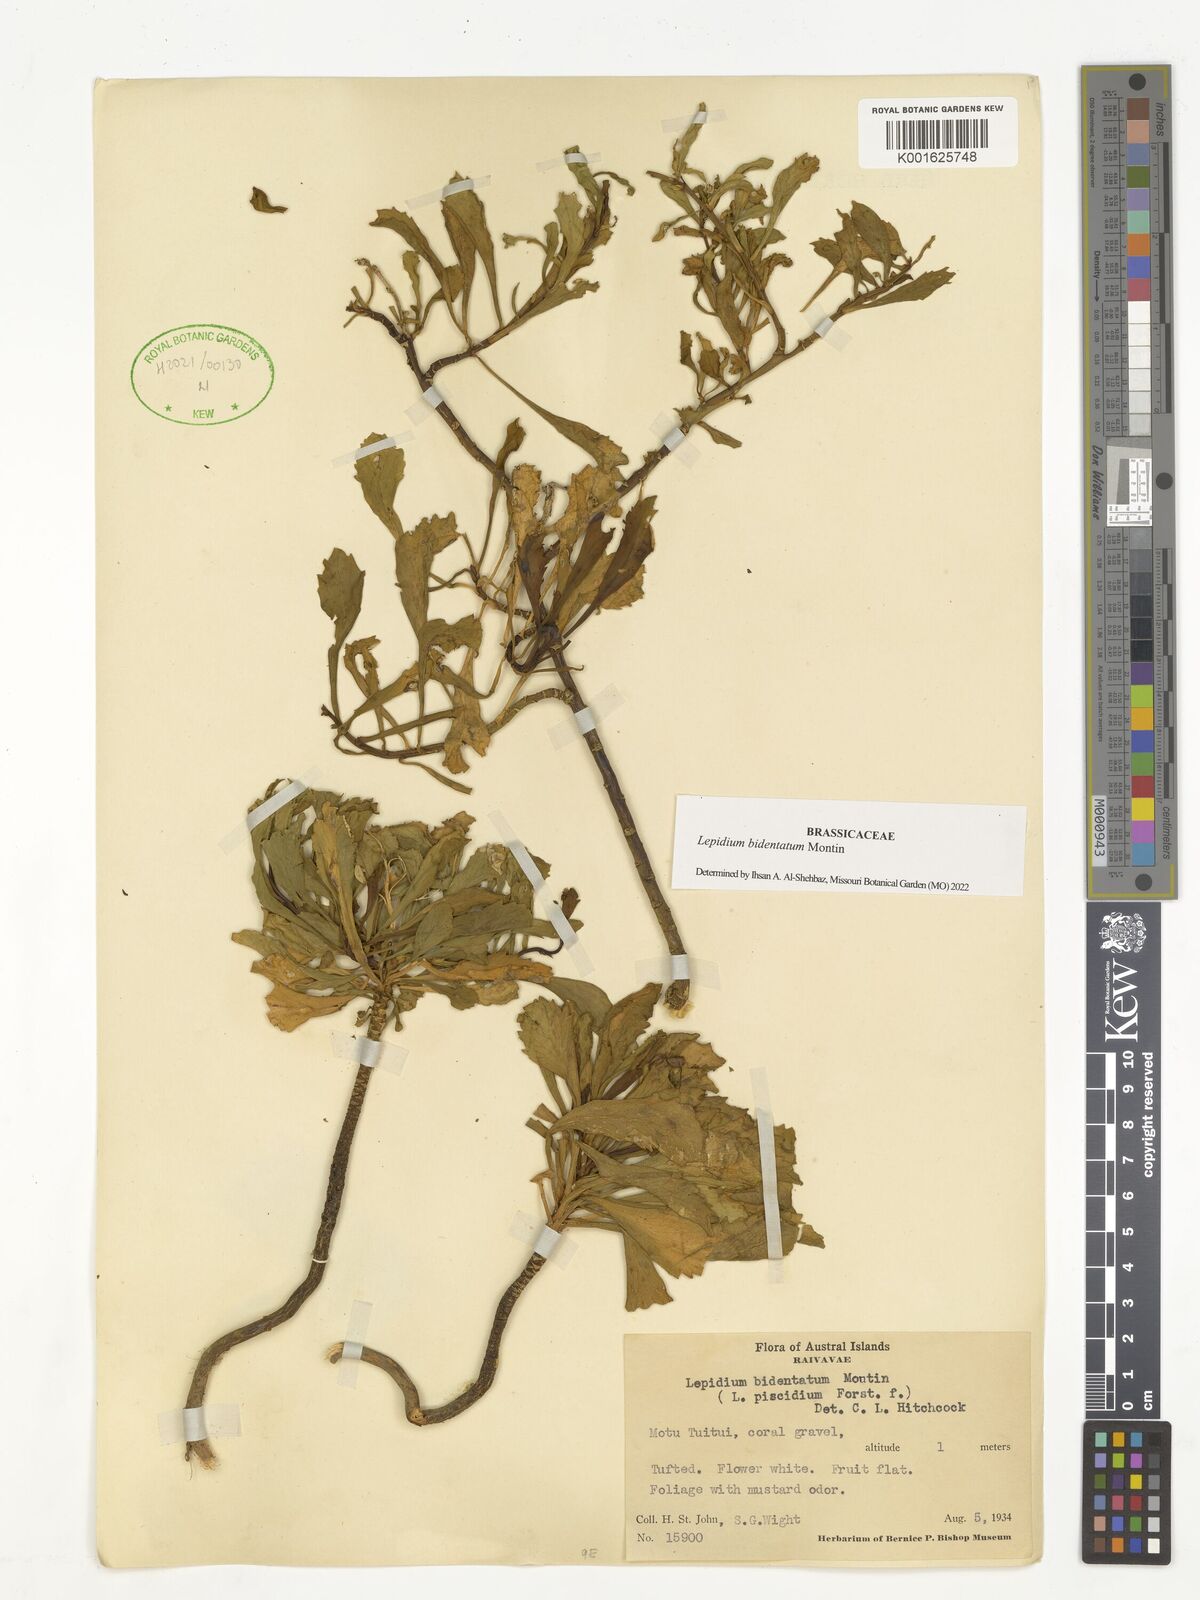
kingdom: Plantae
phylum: Tracheophyta
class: Magnoliopsida
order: Brassicales
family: Brassicaceae
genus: Lepidium
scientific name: Lepidium bidentatum
